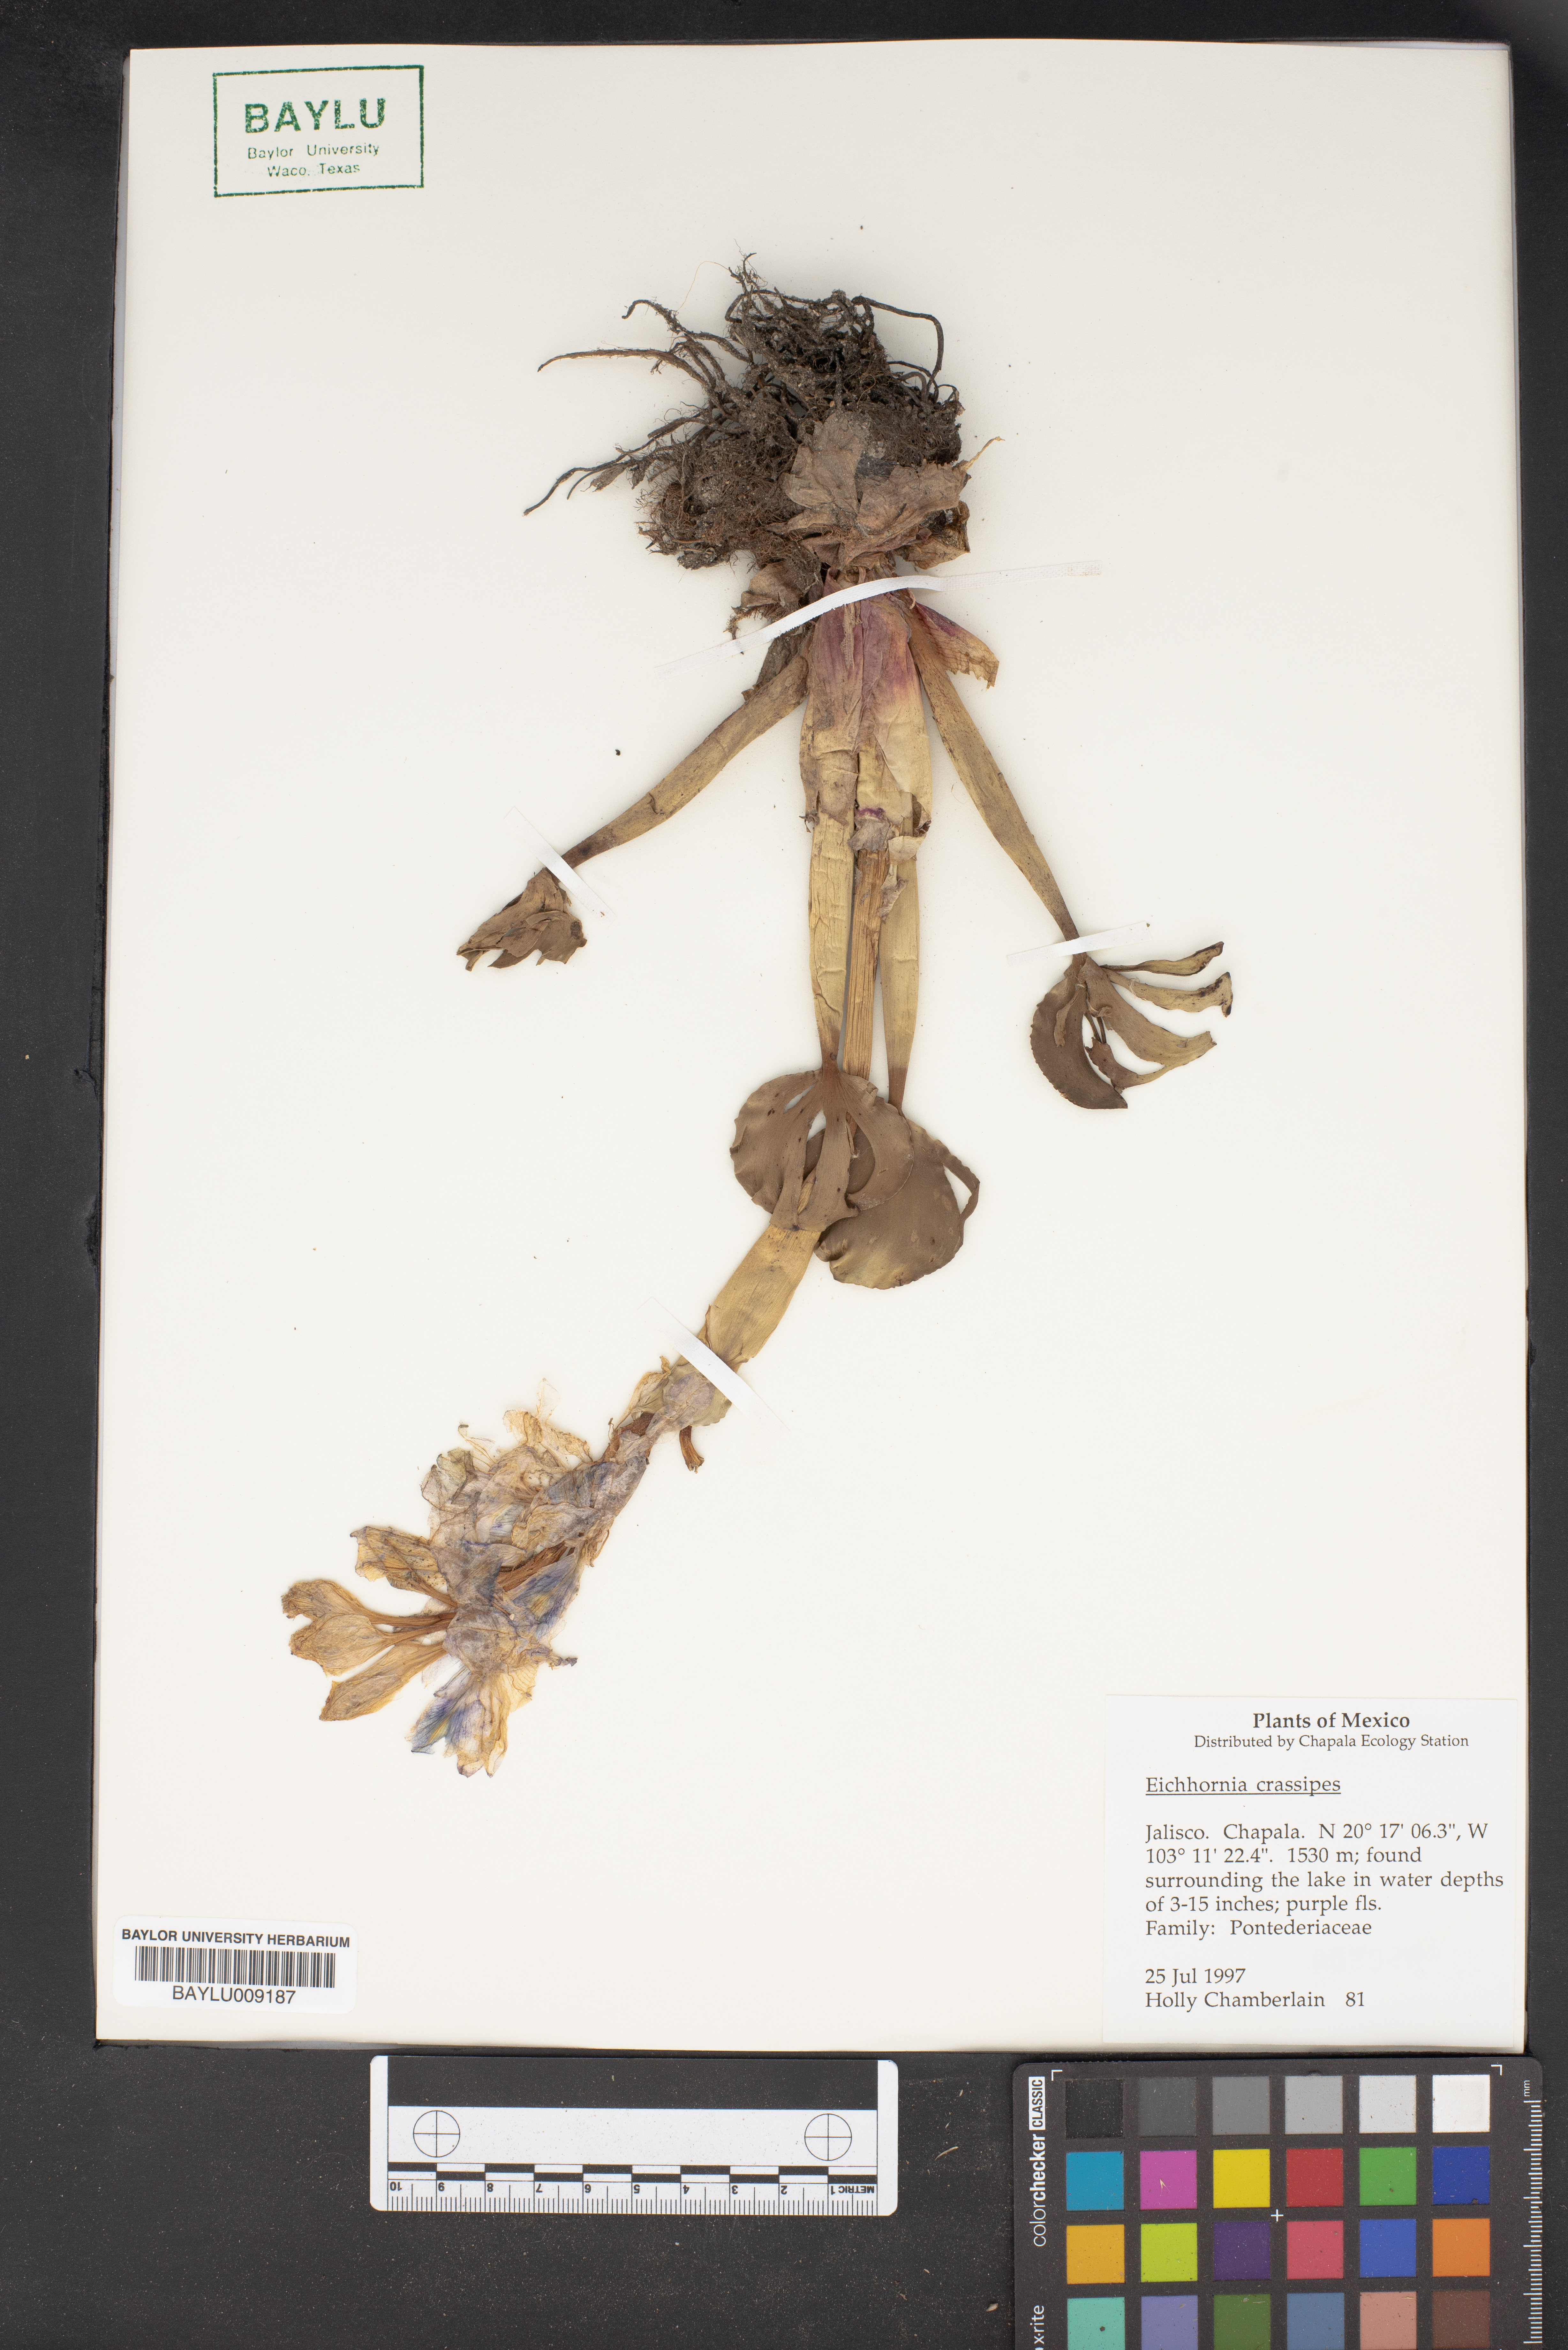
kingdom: Plantae
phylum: Tracheophyta
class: Liliopsida
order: Commelinales
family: Pontederiaceae
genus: Pontederia
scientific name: Pontederia crassipes
